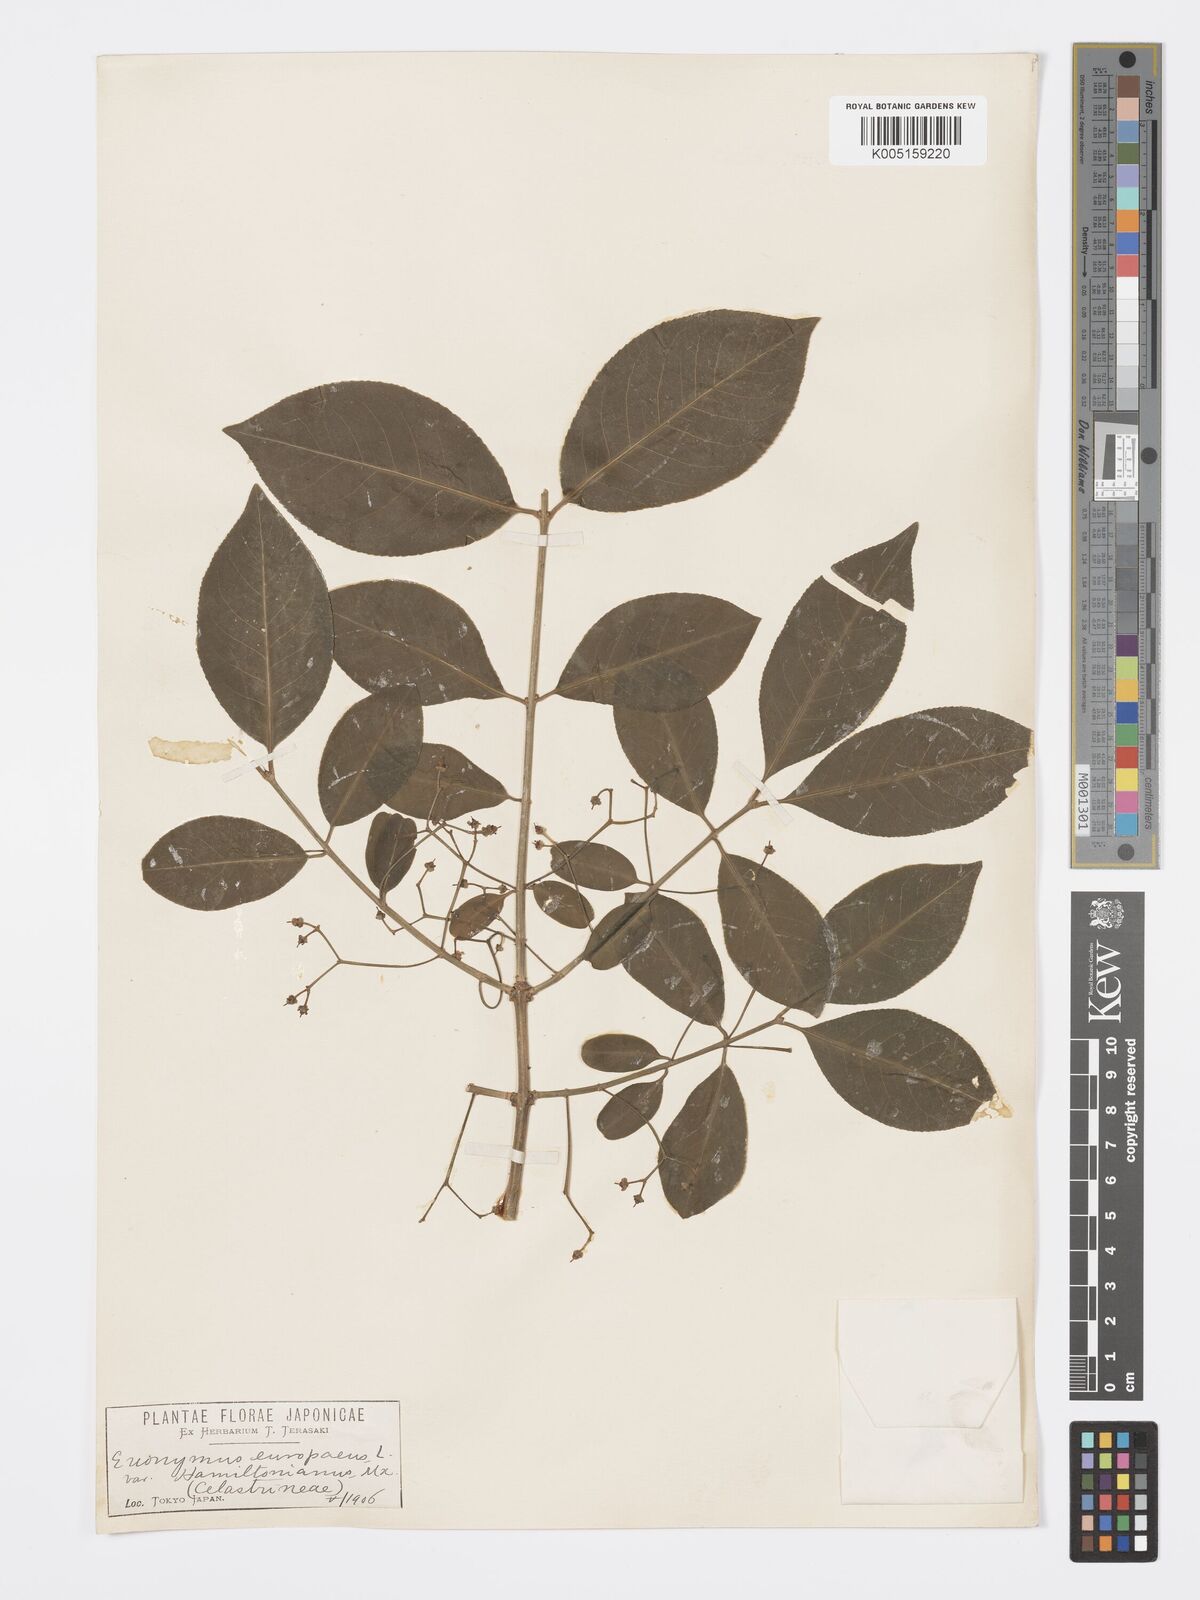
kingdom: Plantae
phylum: Tracheophyta
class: Magnoliopsida
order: Celastrales
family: Celastraceae
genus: Euonymus
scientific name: Euonymus hamiltonianus
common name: Hamilton's spindletree
